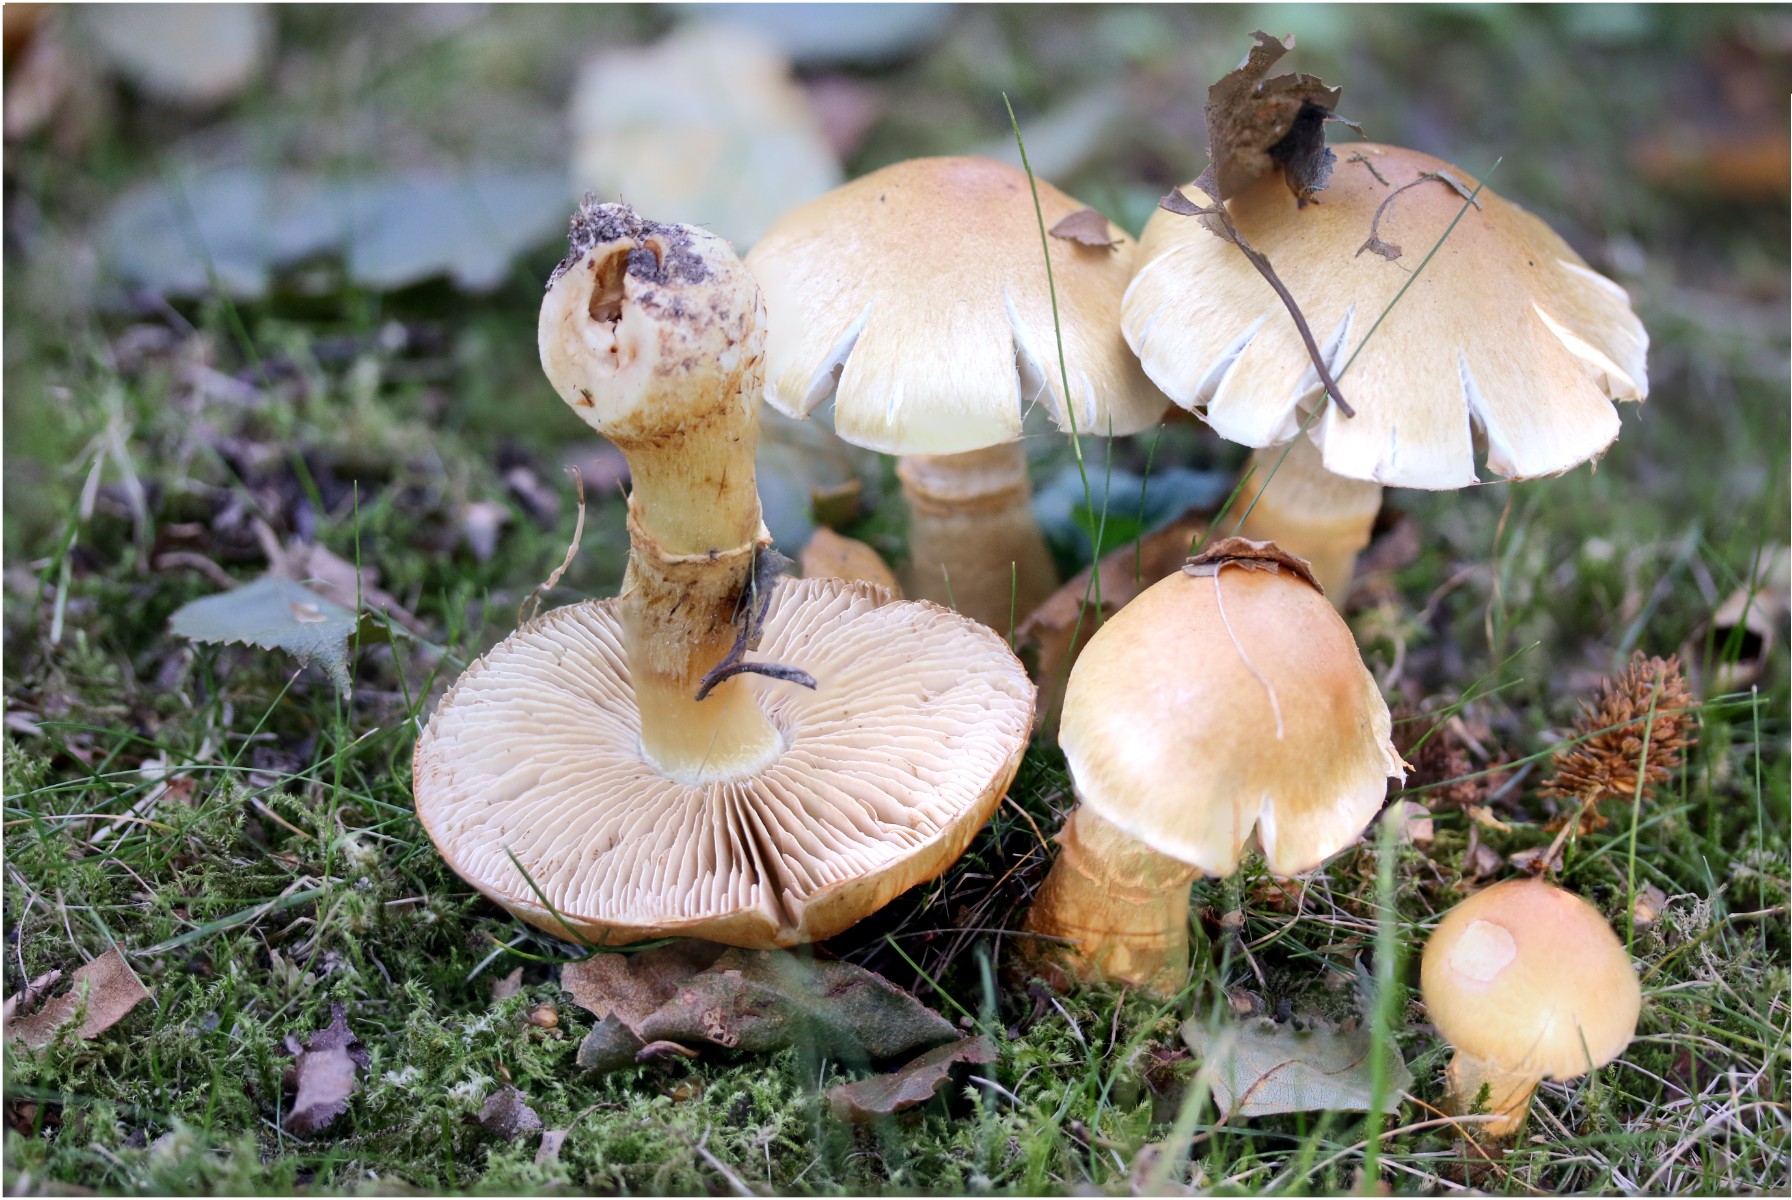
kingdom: Fungi
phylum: Basidiomycota
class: Agaricomycetes
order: Agaricales
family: Cortinariaceae
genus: Phlegmacium
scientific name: Phlegmacium triumphans
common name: gulbæltet slørhat
